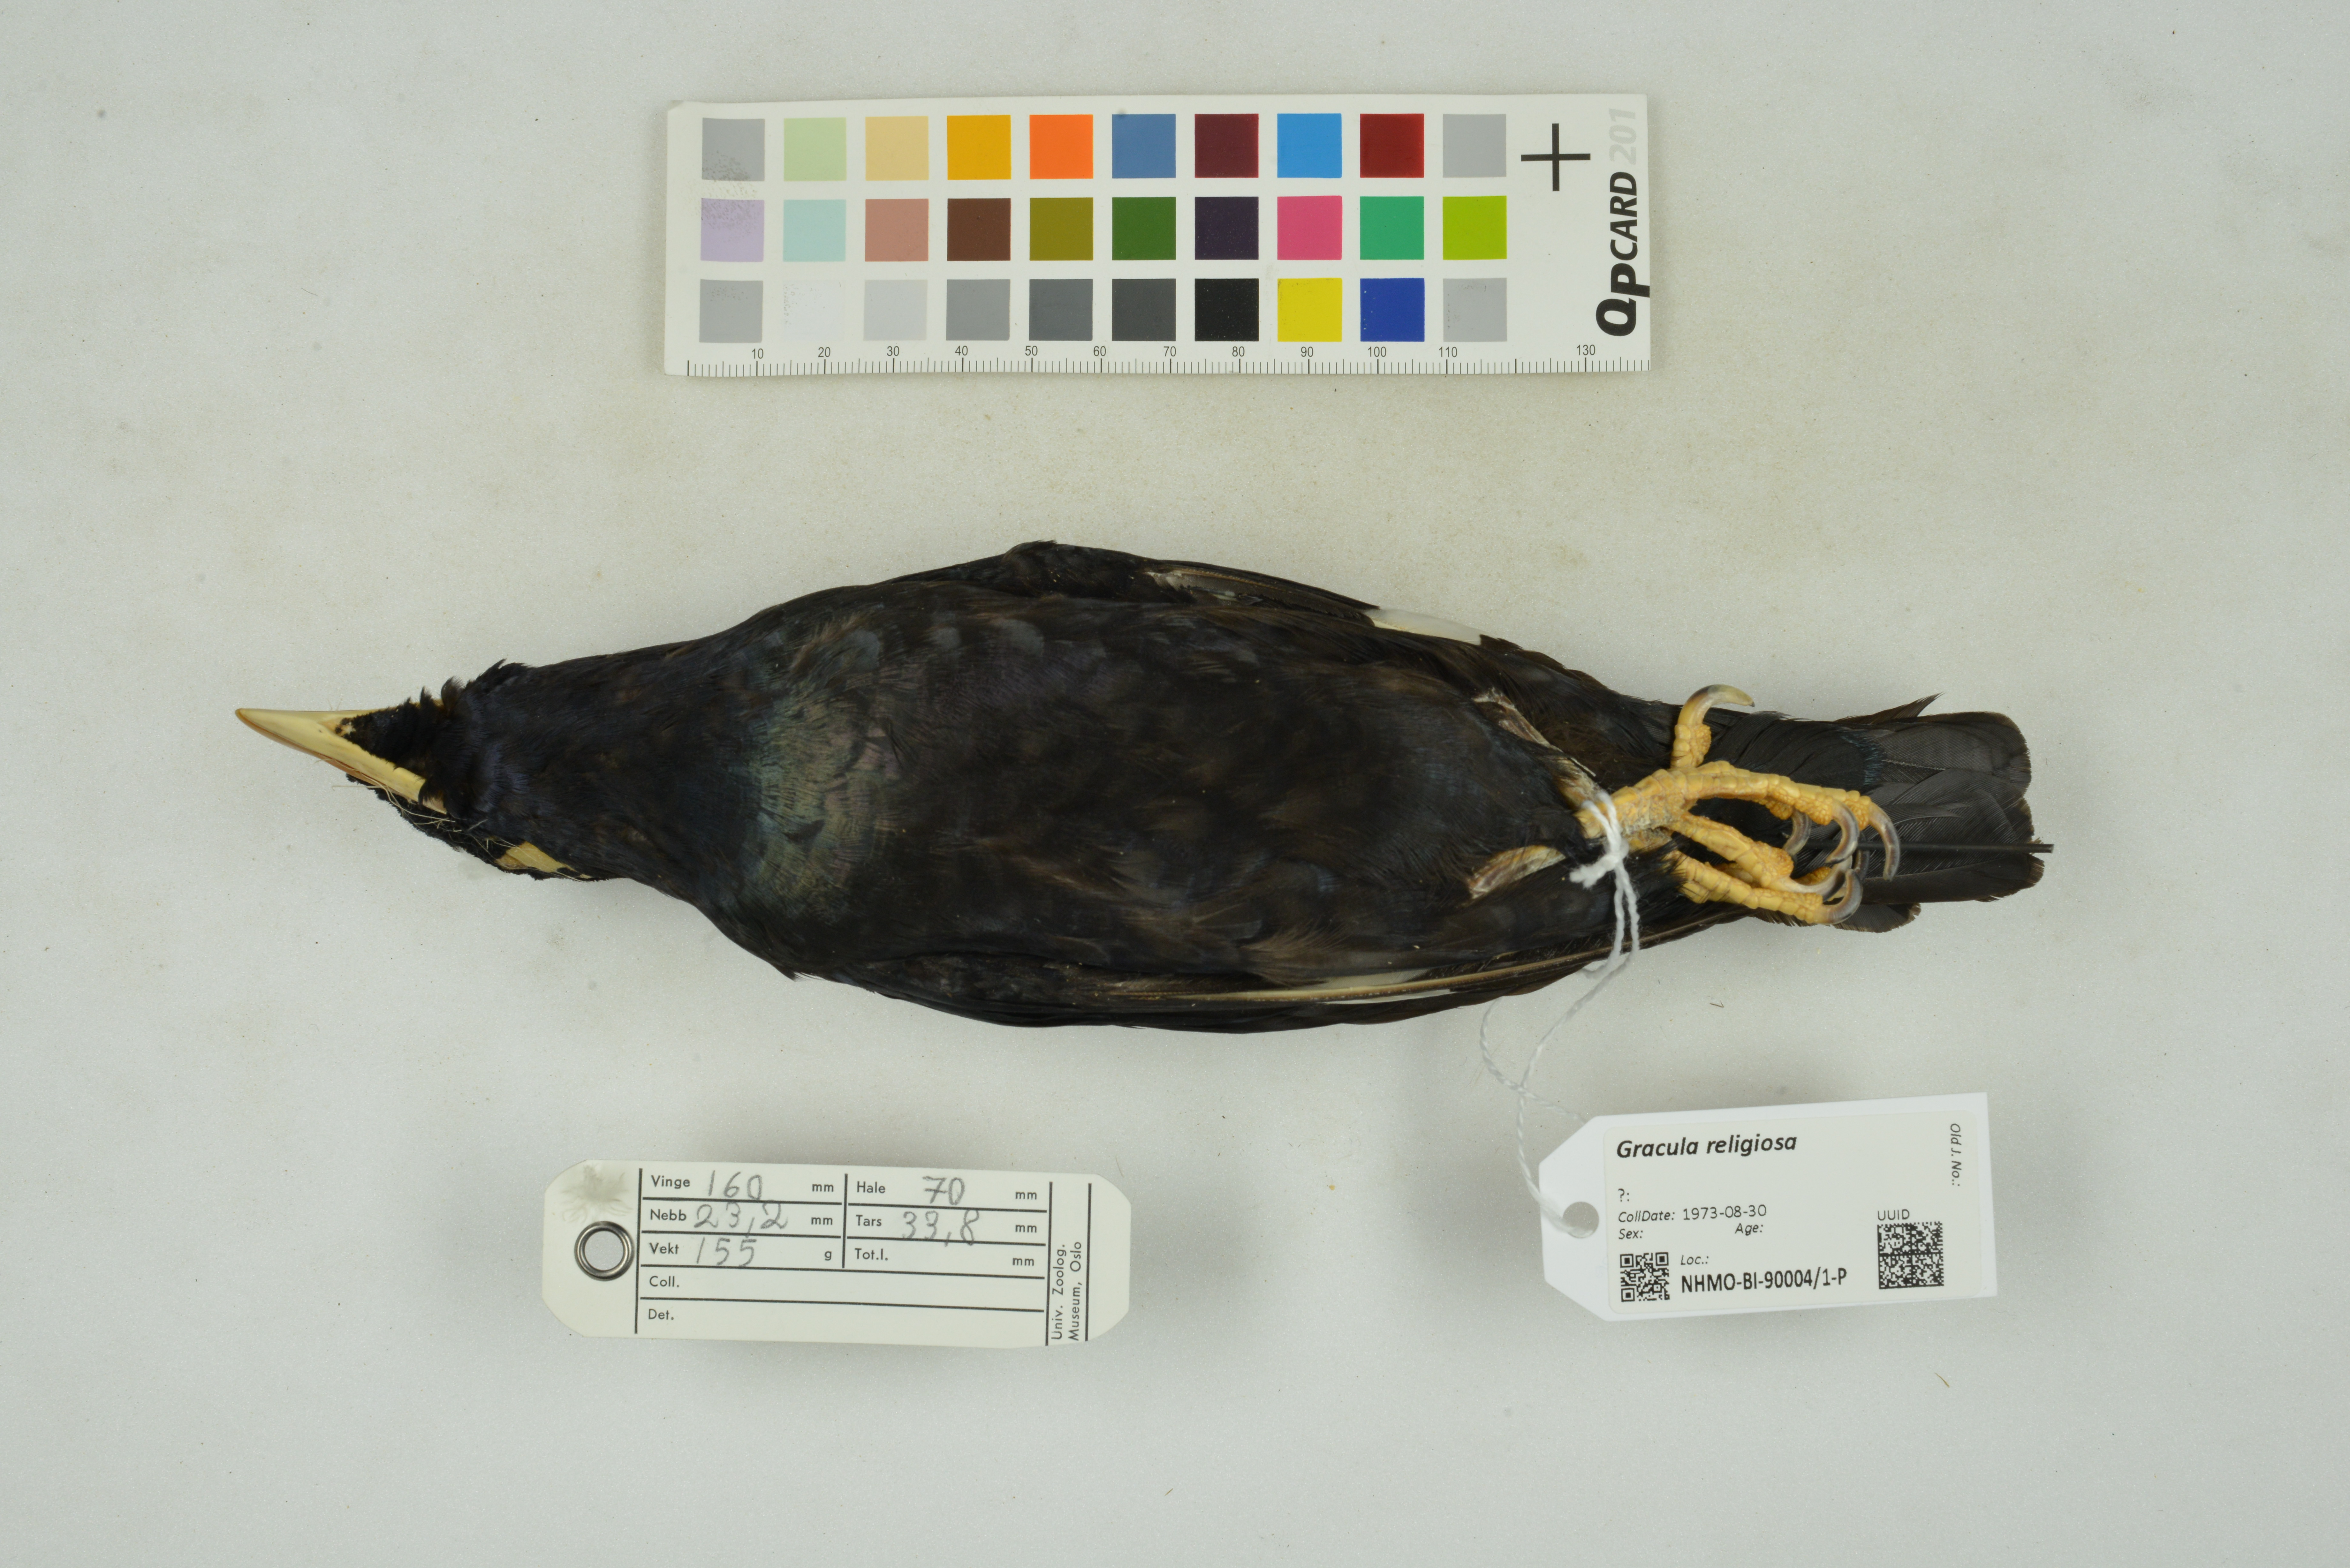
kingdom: Animalia
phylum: Chordata
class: Aves
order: Passeriformes
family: Sturnidae
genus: Gracula
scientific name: Gracula religiosa
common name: Common hill myna
